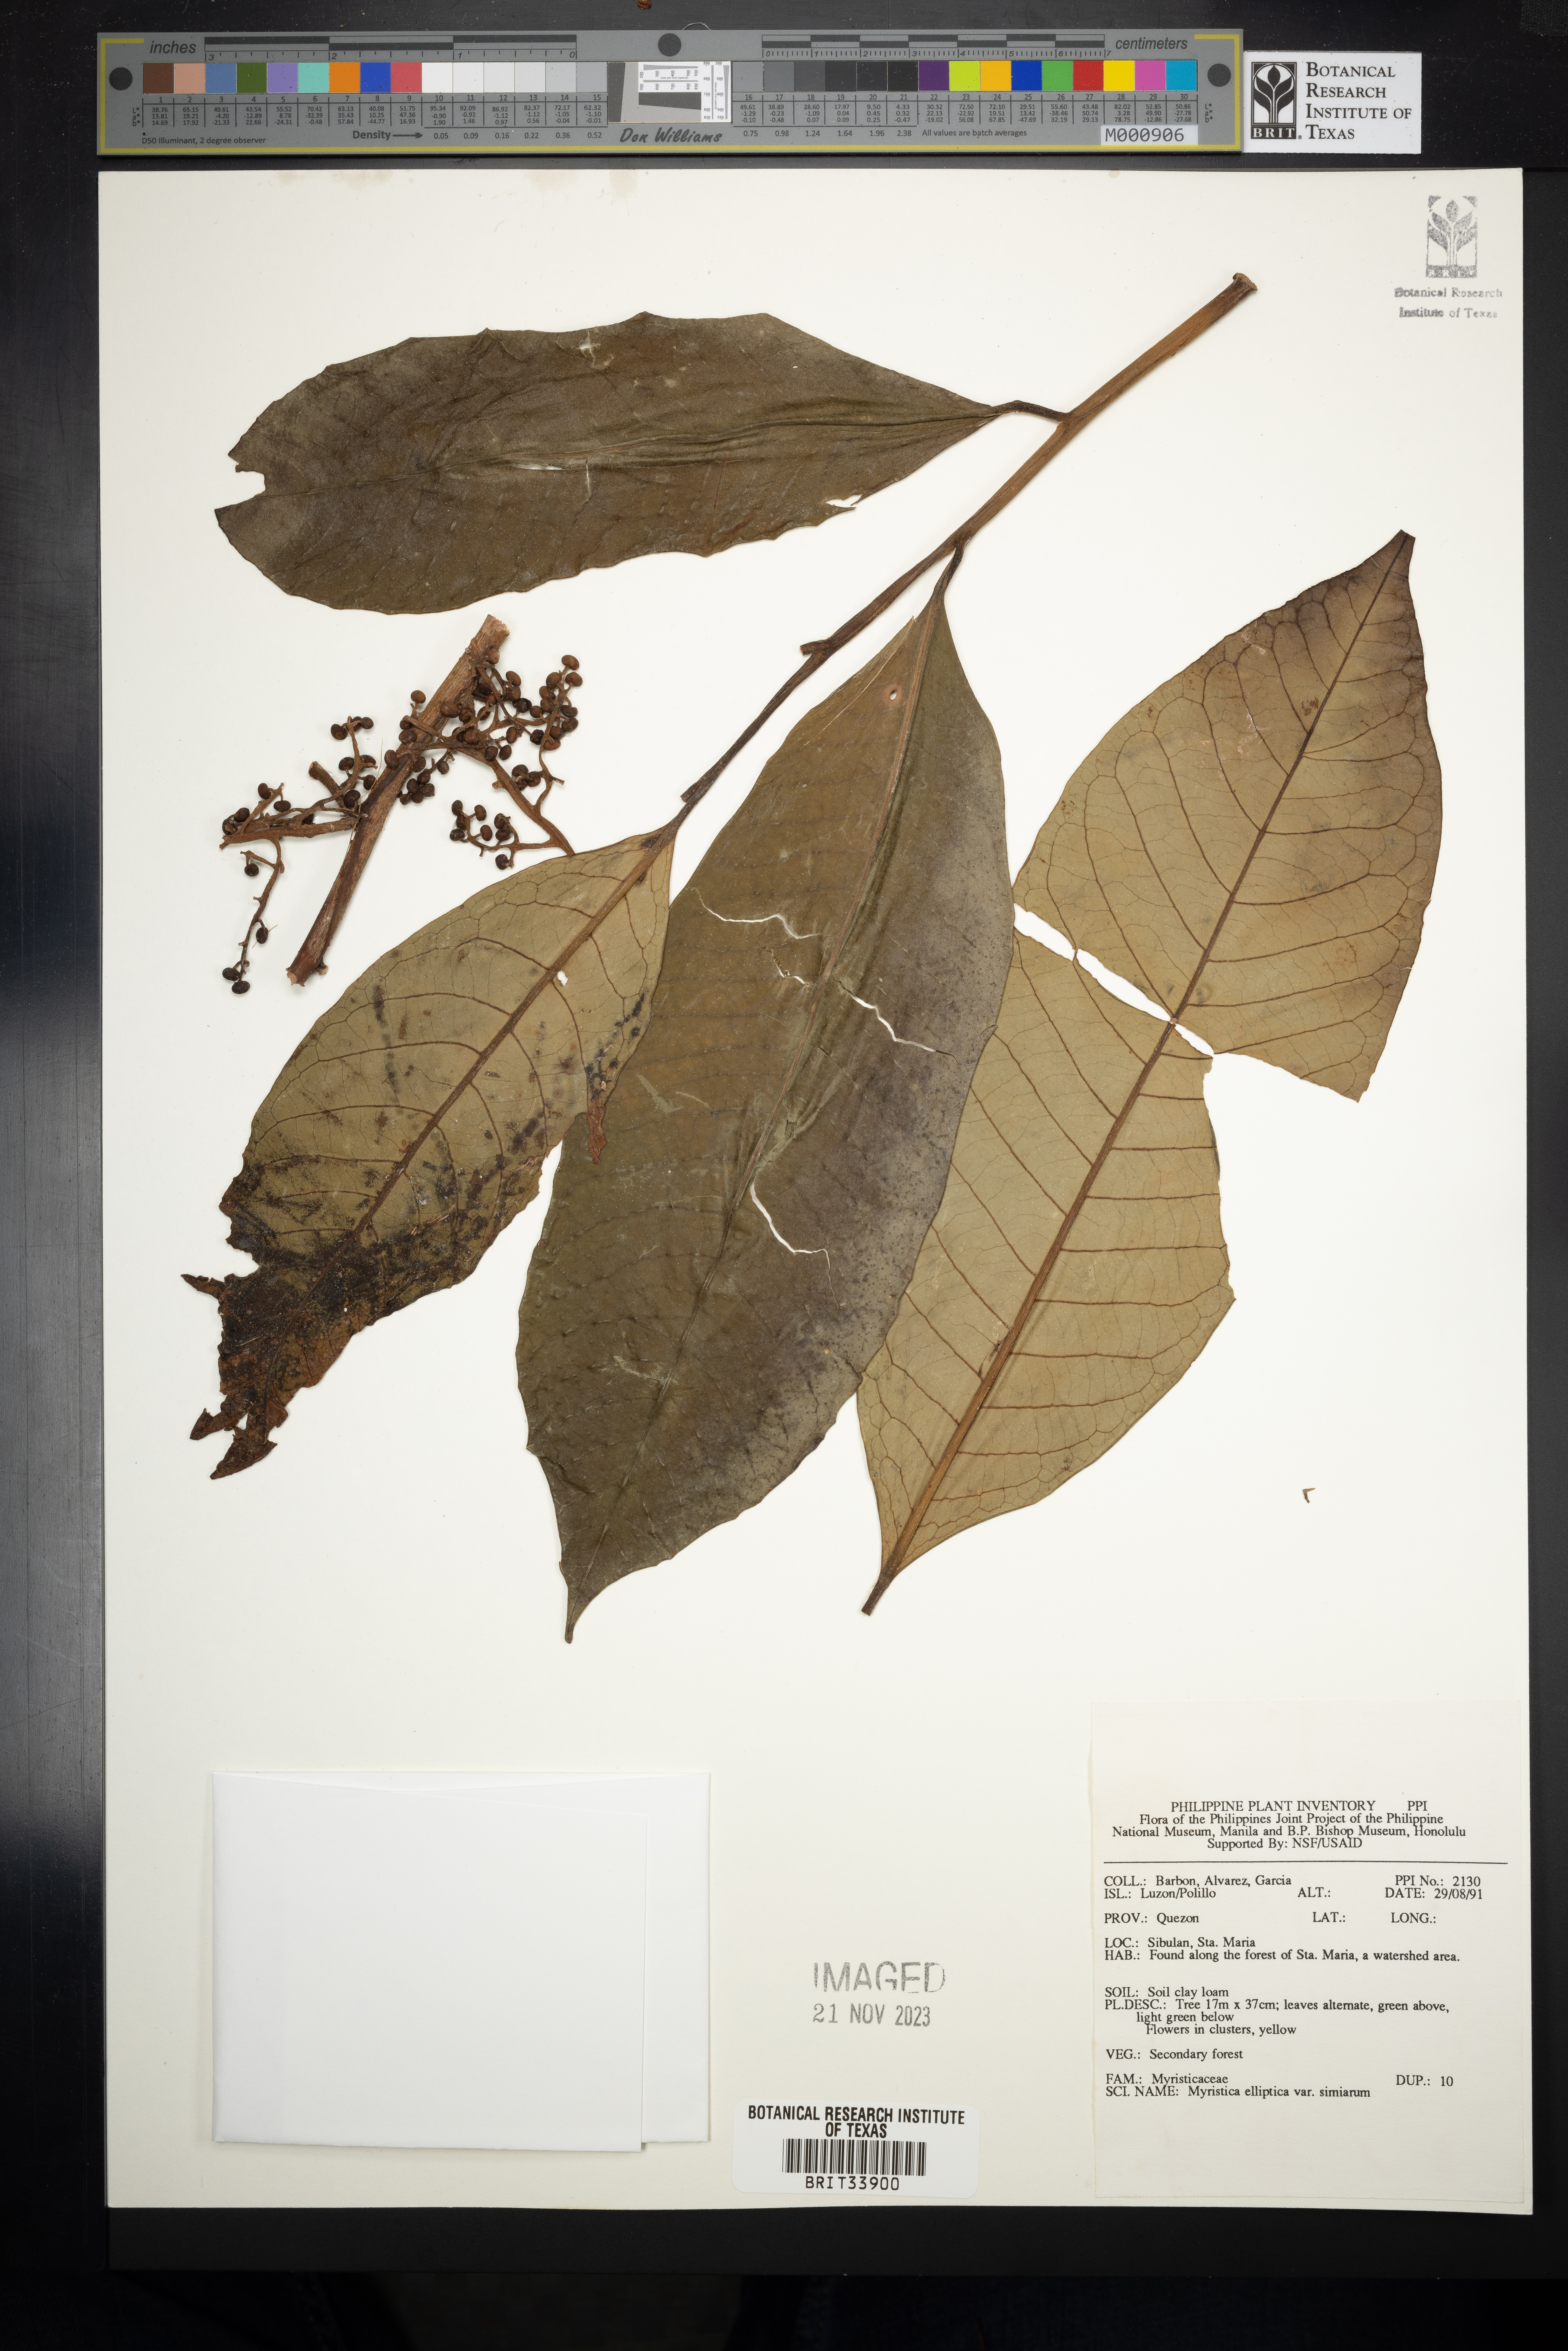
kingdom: Plantae
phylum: Tracheophyta
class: Magnoliopsida
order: Magnoliales
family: Myristicaceae
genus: Myristica
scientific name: Myristica elliptica
